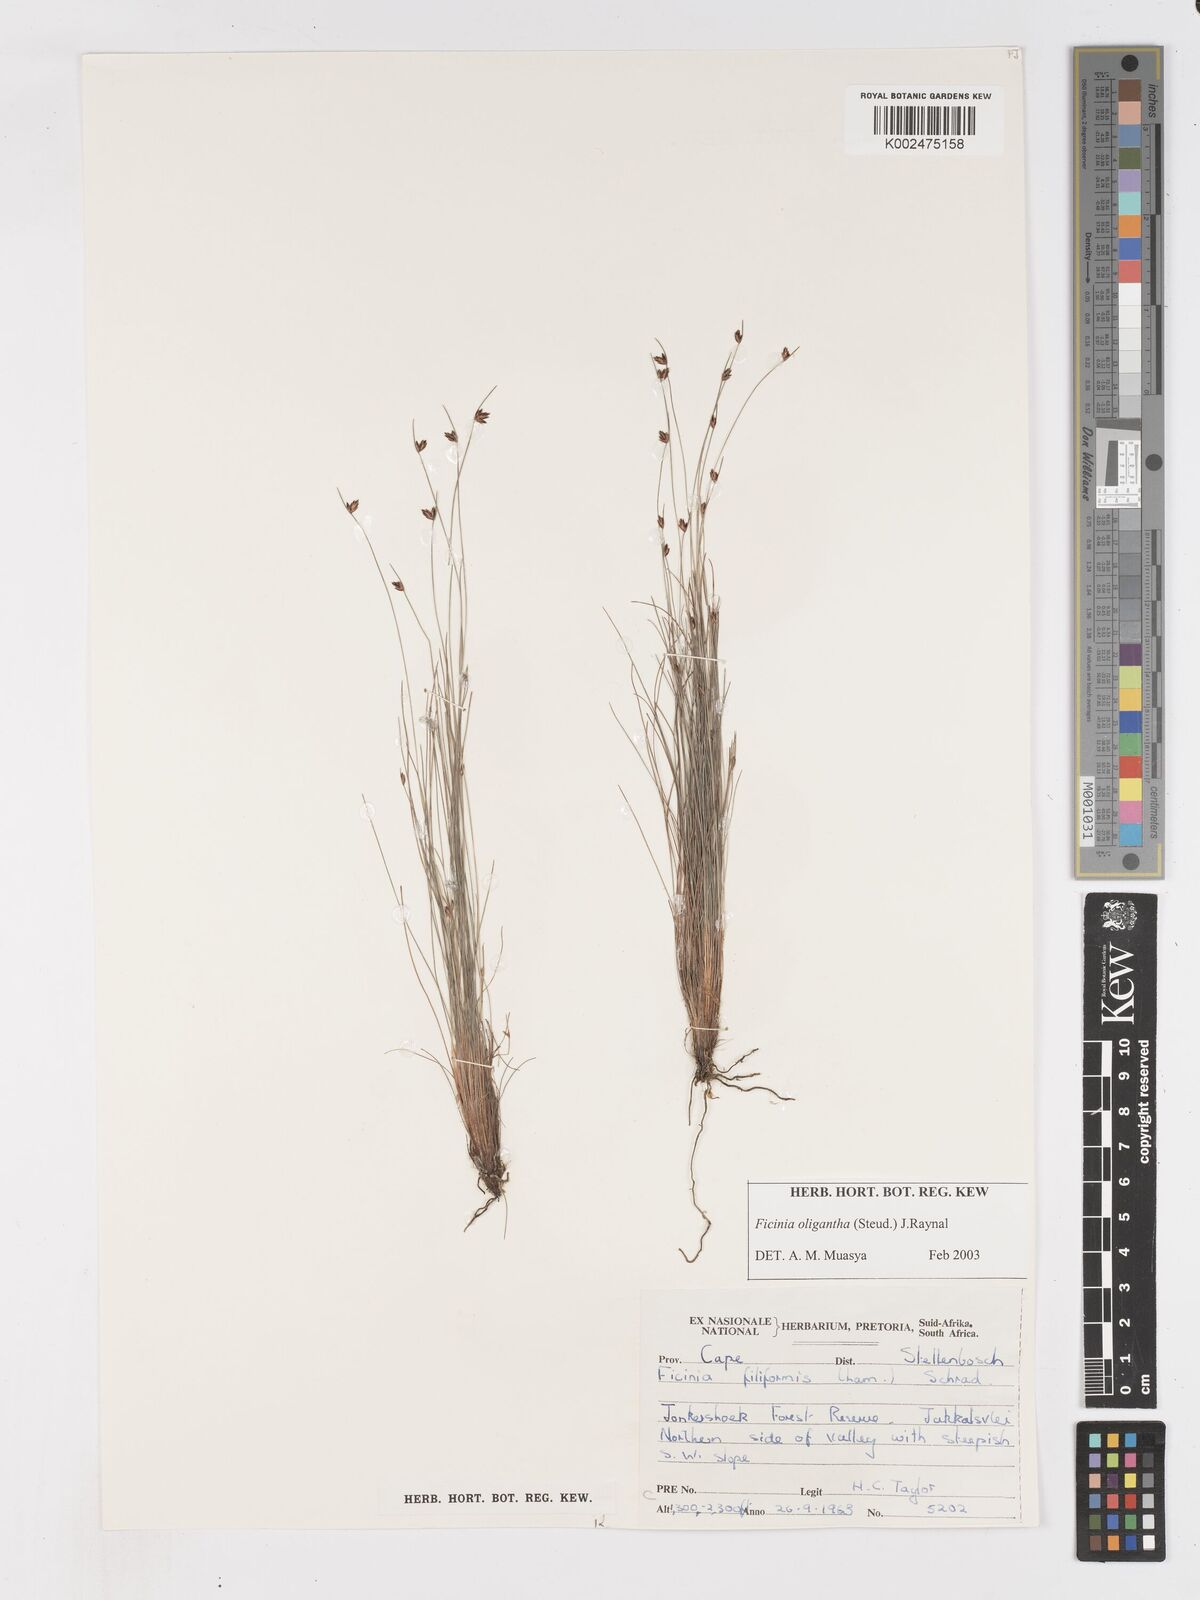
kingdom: Plantae
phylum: Tracheophyta
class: Liliopsida
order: Poales
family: Cyperaceae
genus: Ficinia
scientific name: Ficinia stolonifera
